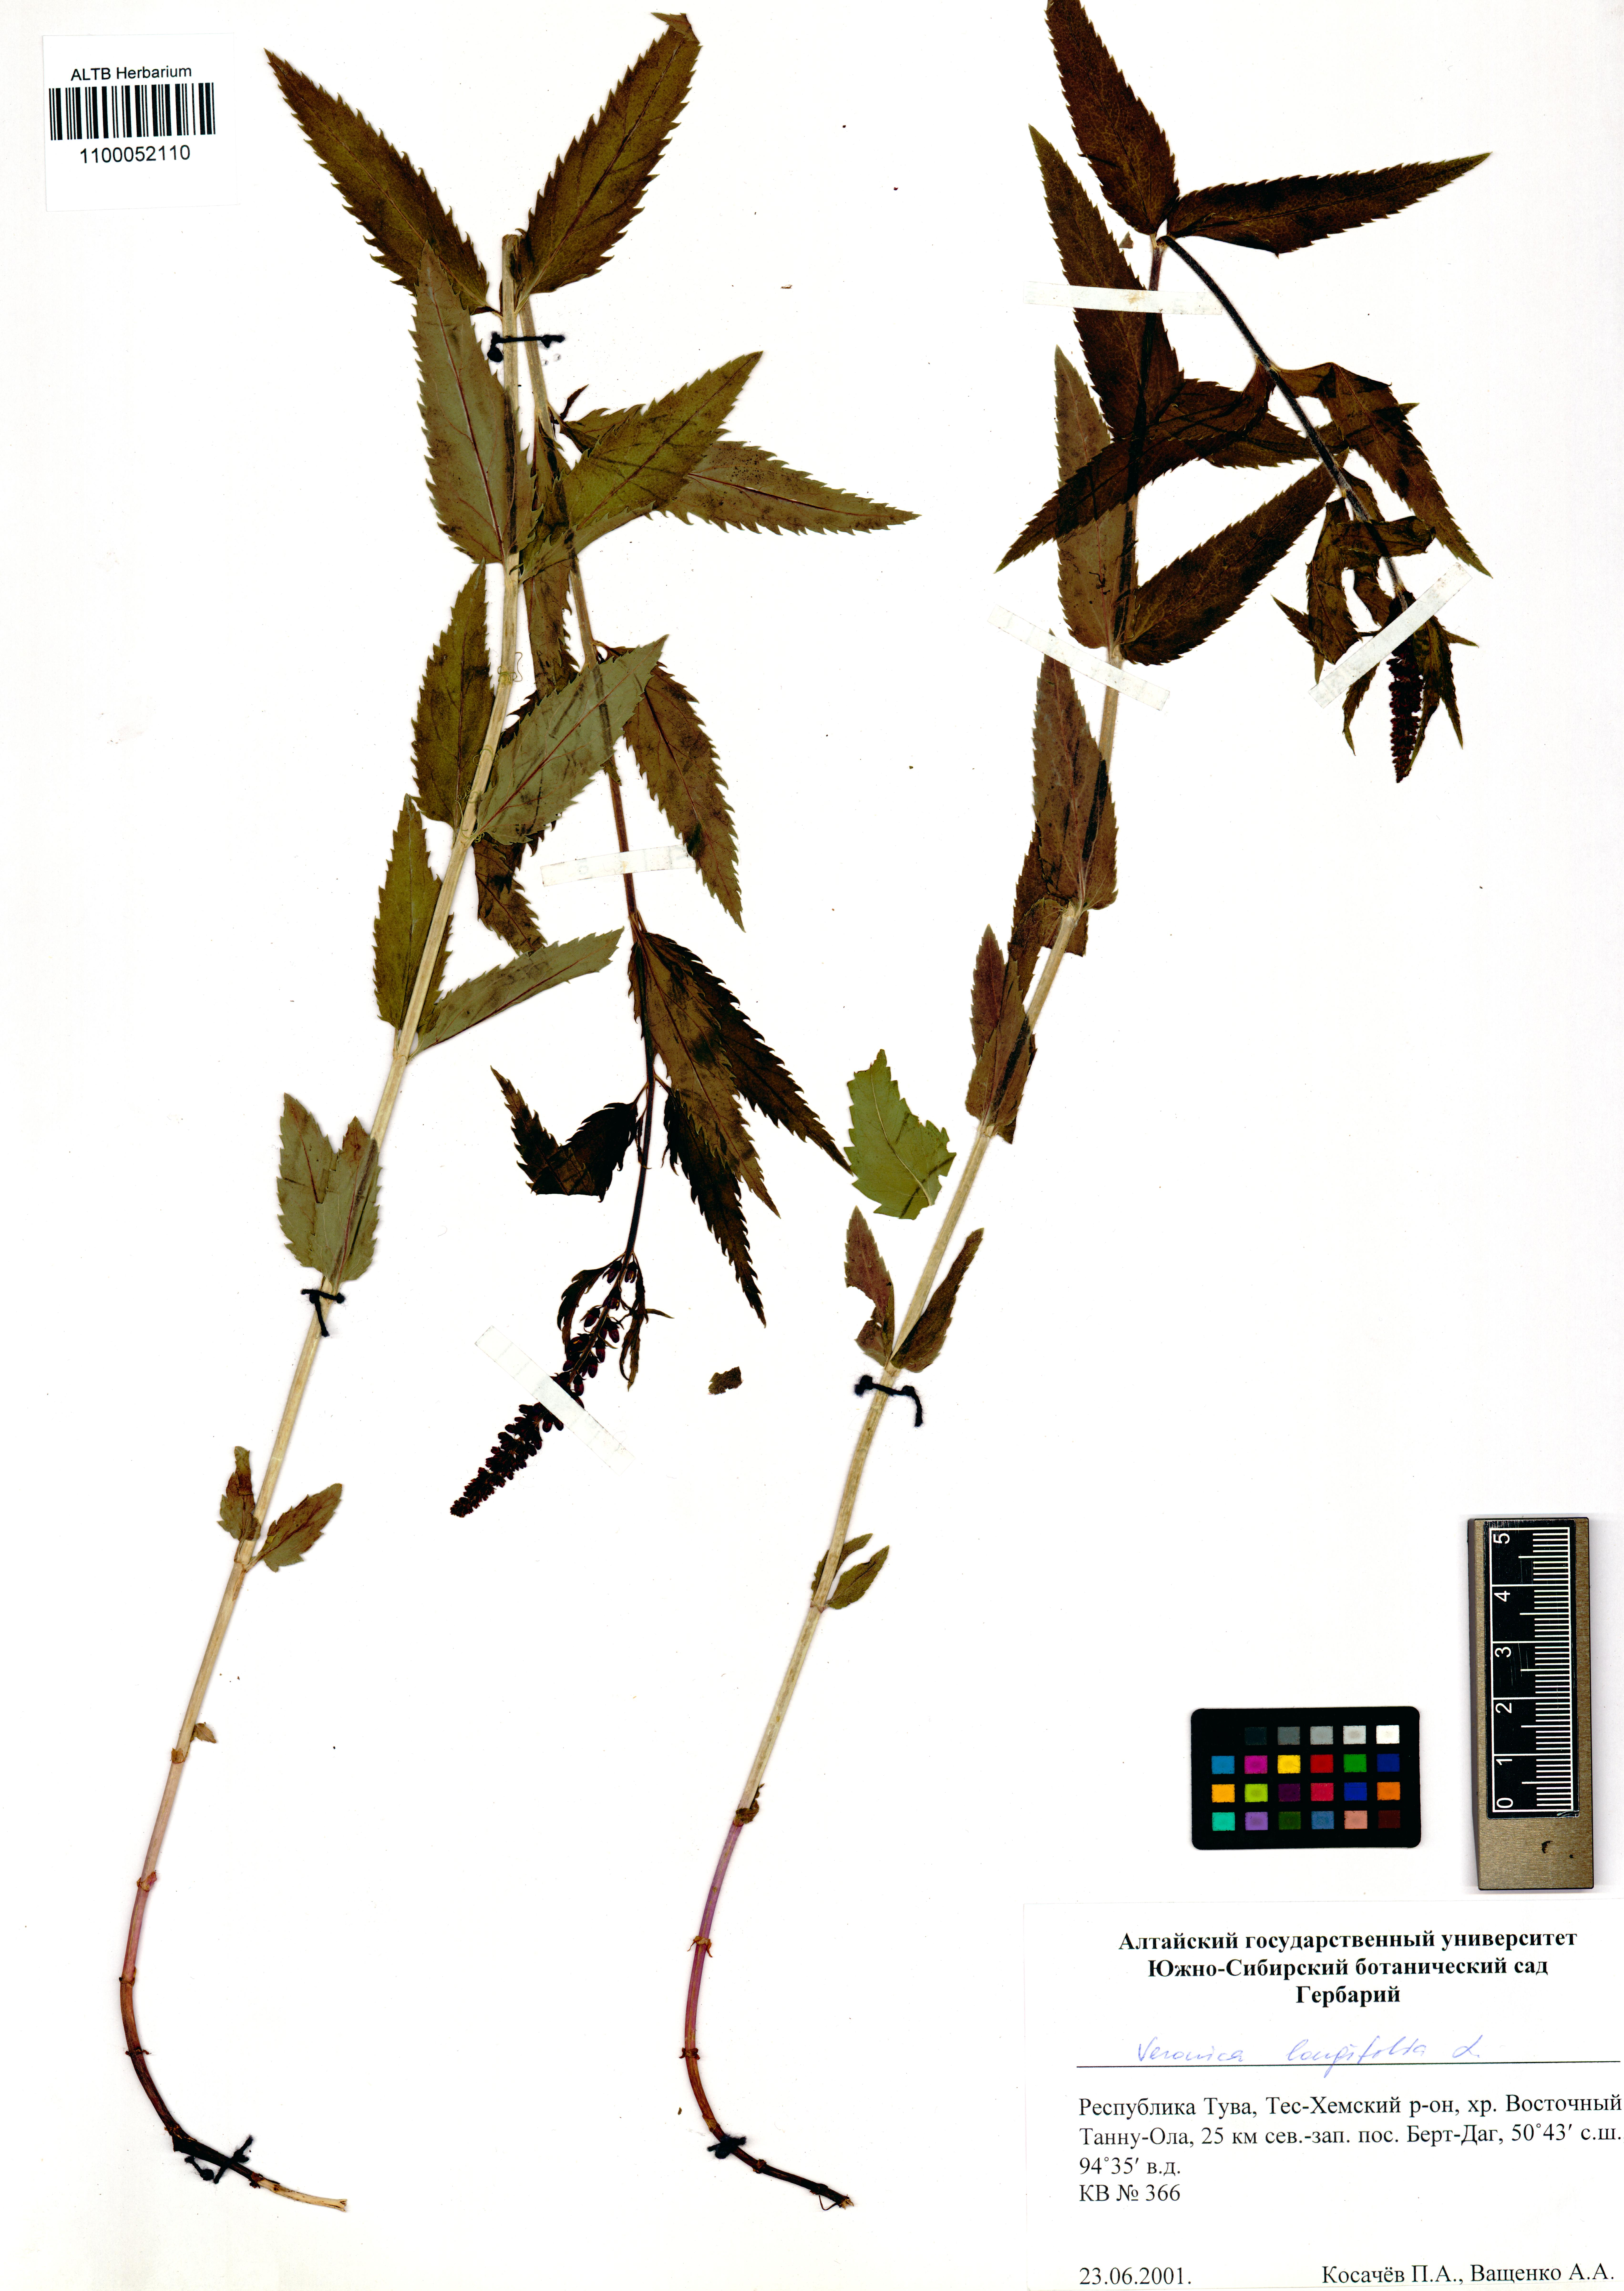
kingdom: Plantae
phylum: Tracheophyta
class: Magnoliopsida
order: Lamiales
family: Plantaginaceae
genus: Veronica
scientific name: Veronica longifolia
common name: Garden speedwell
